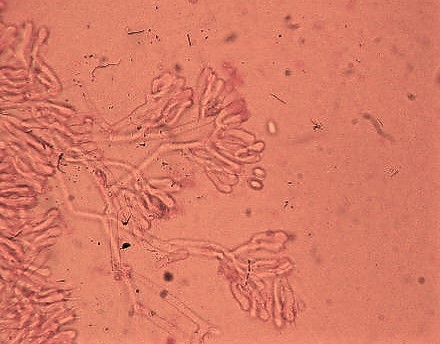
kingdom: Fungi
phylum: Basidiomycota
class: Agaricomycetes
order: Atheliales
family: Atheliaceae
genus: Athelia
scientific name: Athelia epiphylla
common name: almindelig barkhinde
